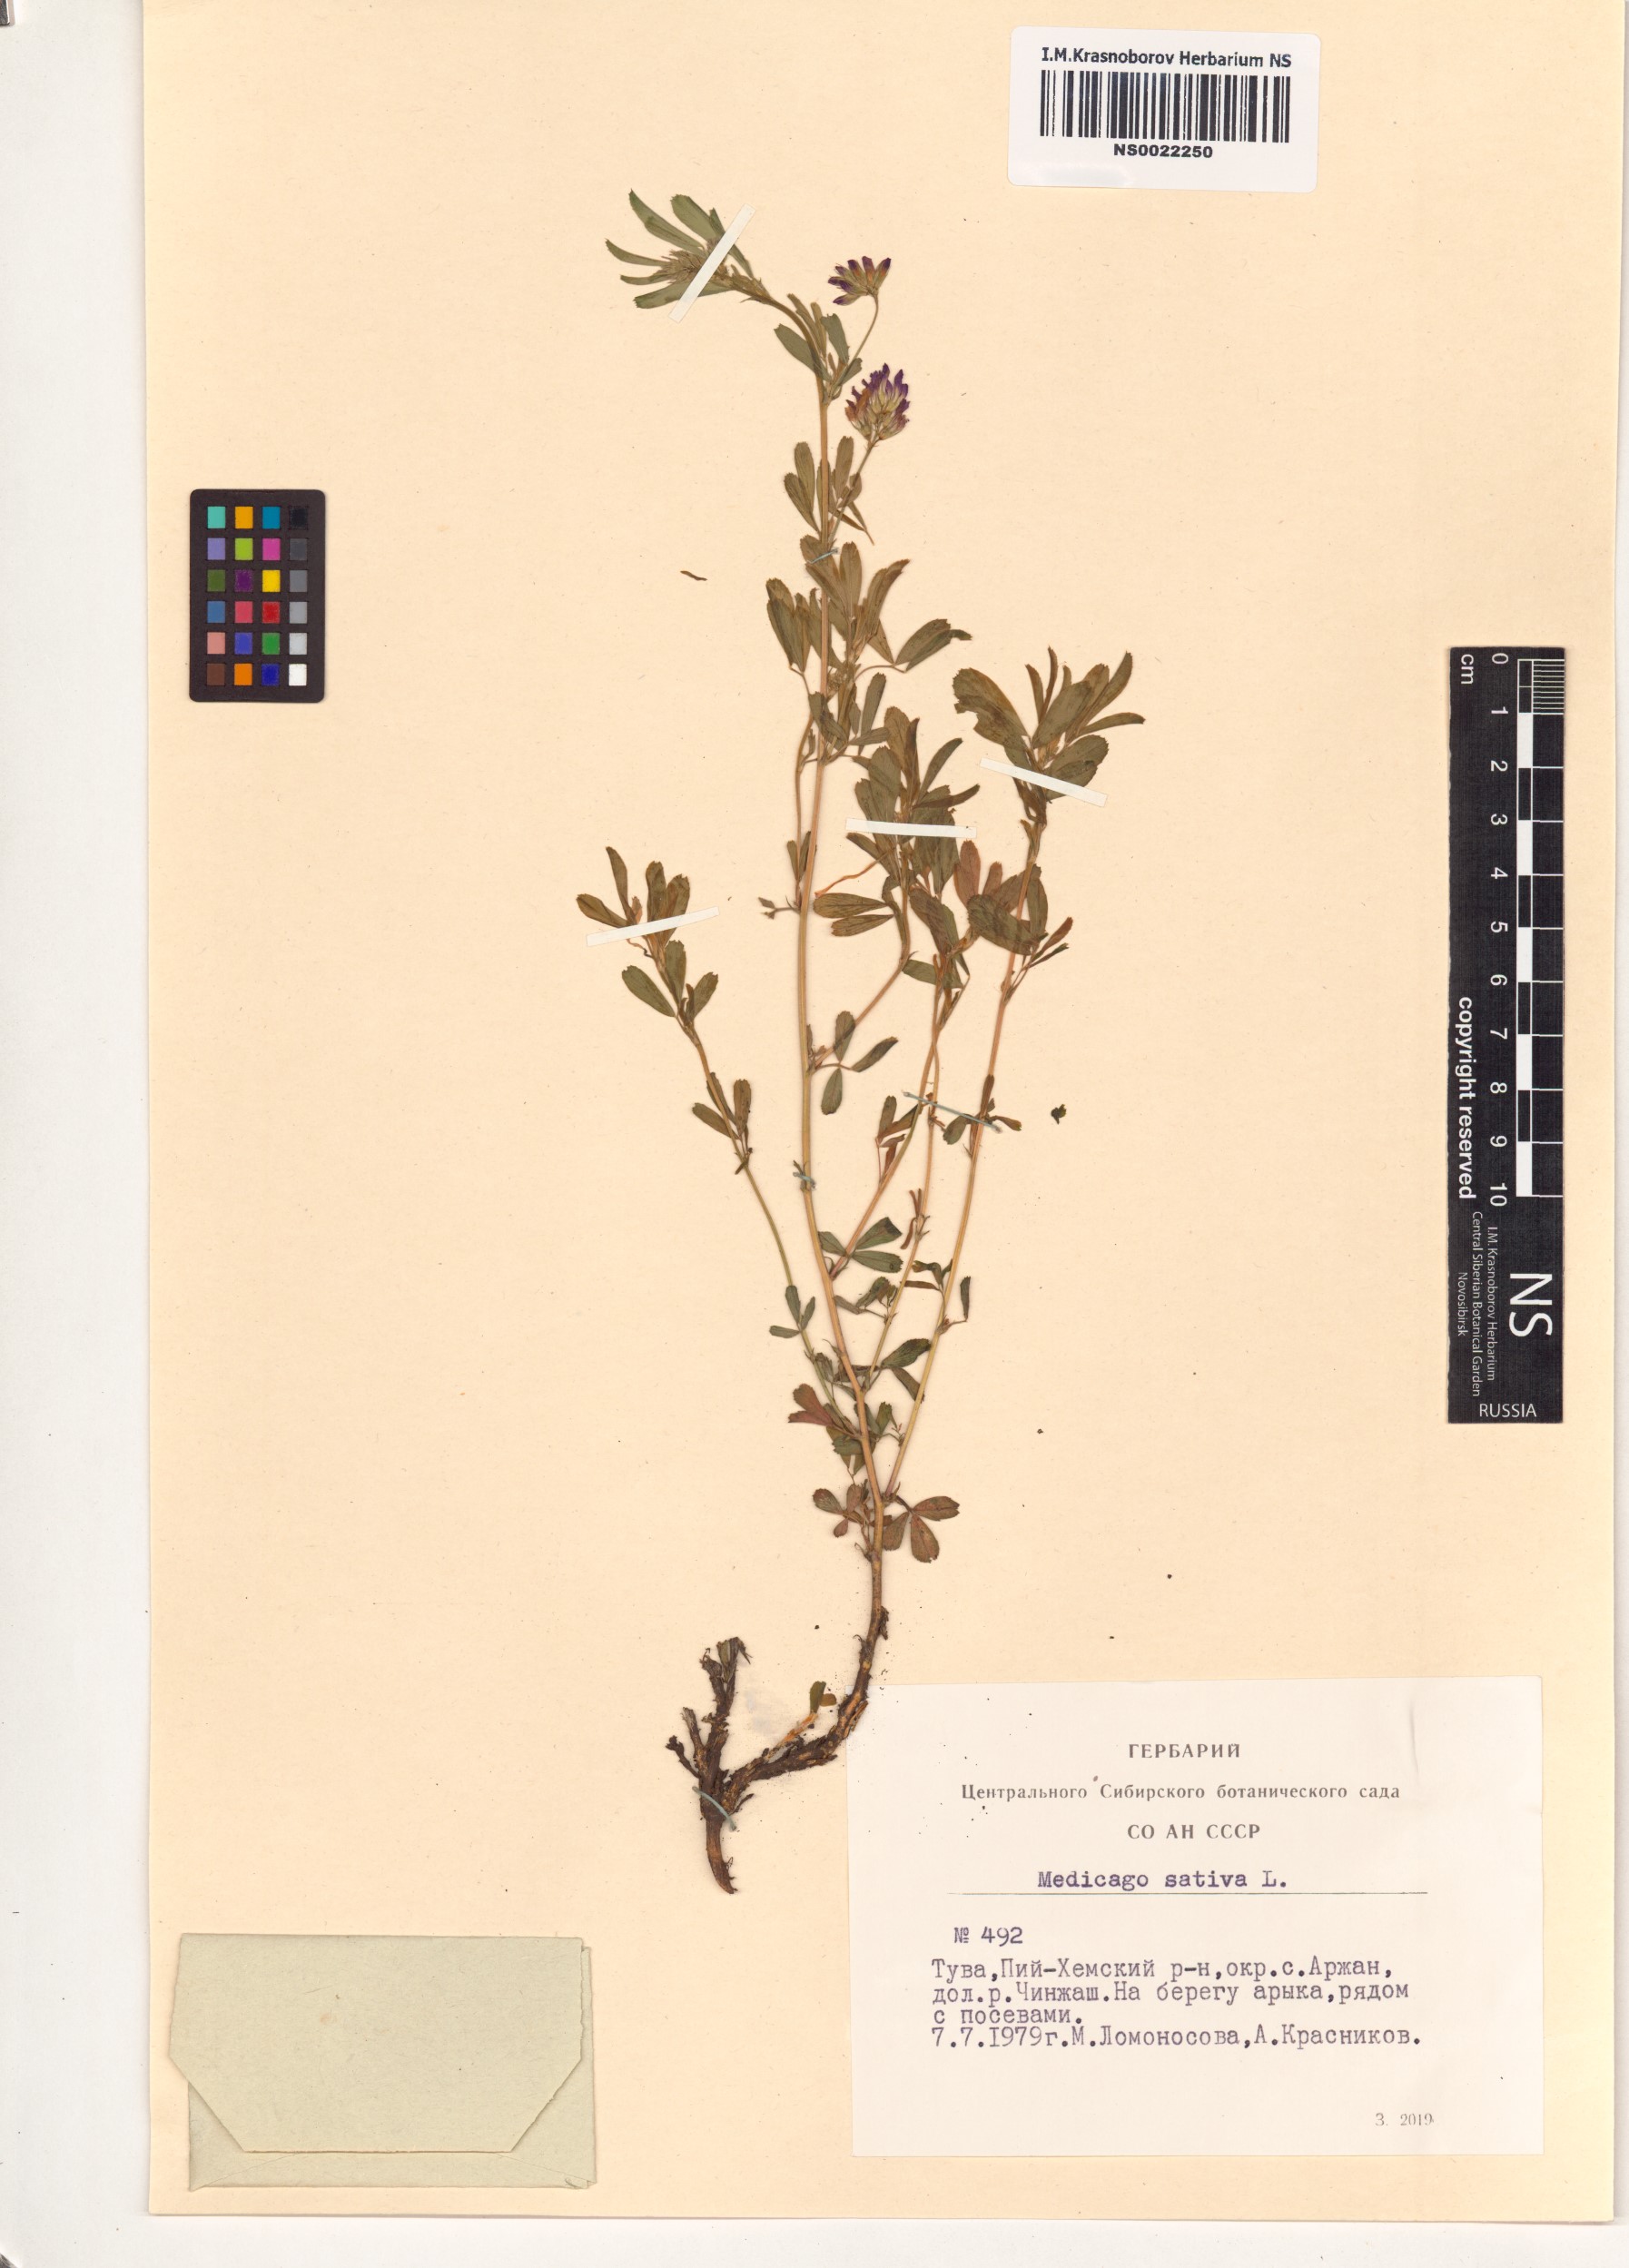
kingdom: Plantae
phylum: Tracheophyta
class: Magnoliopsida
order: Fabales
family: Fabaceae
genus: Medicago
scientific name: Medicago sativa
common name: Alfalfa
